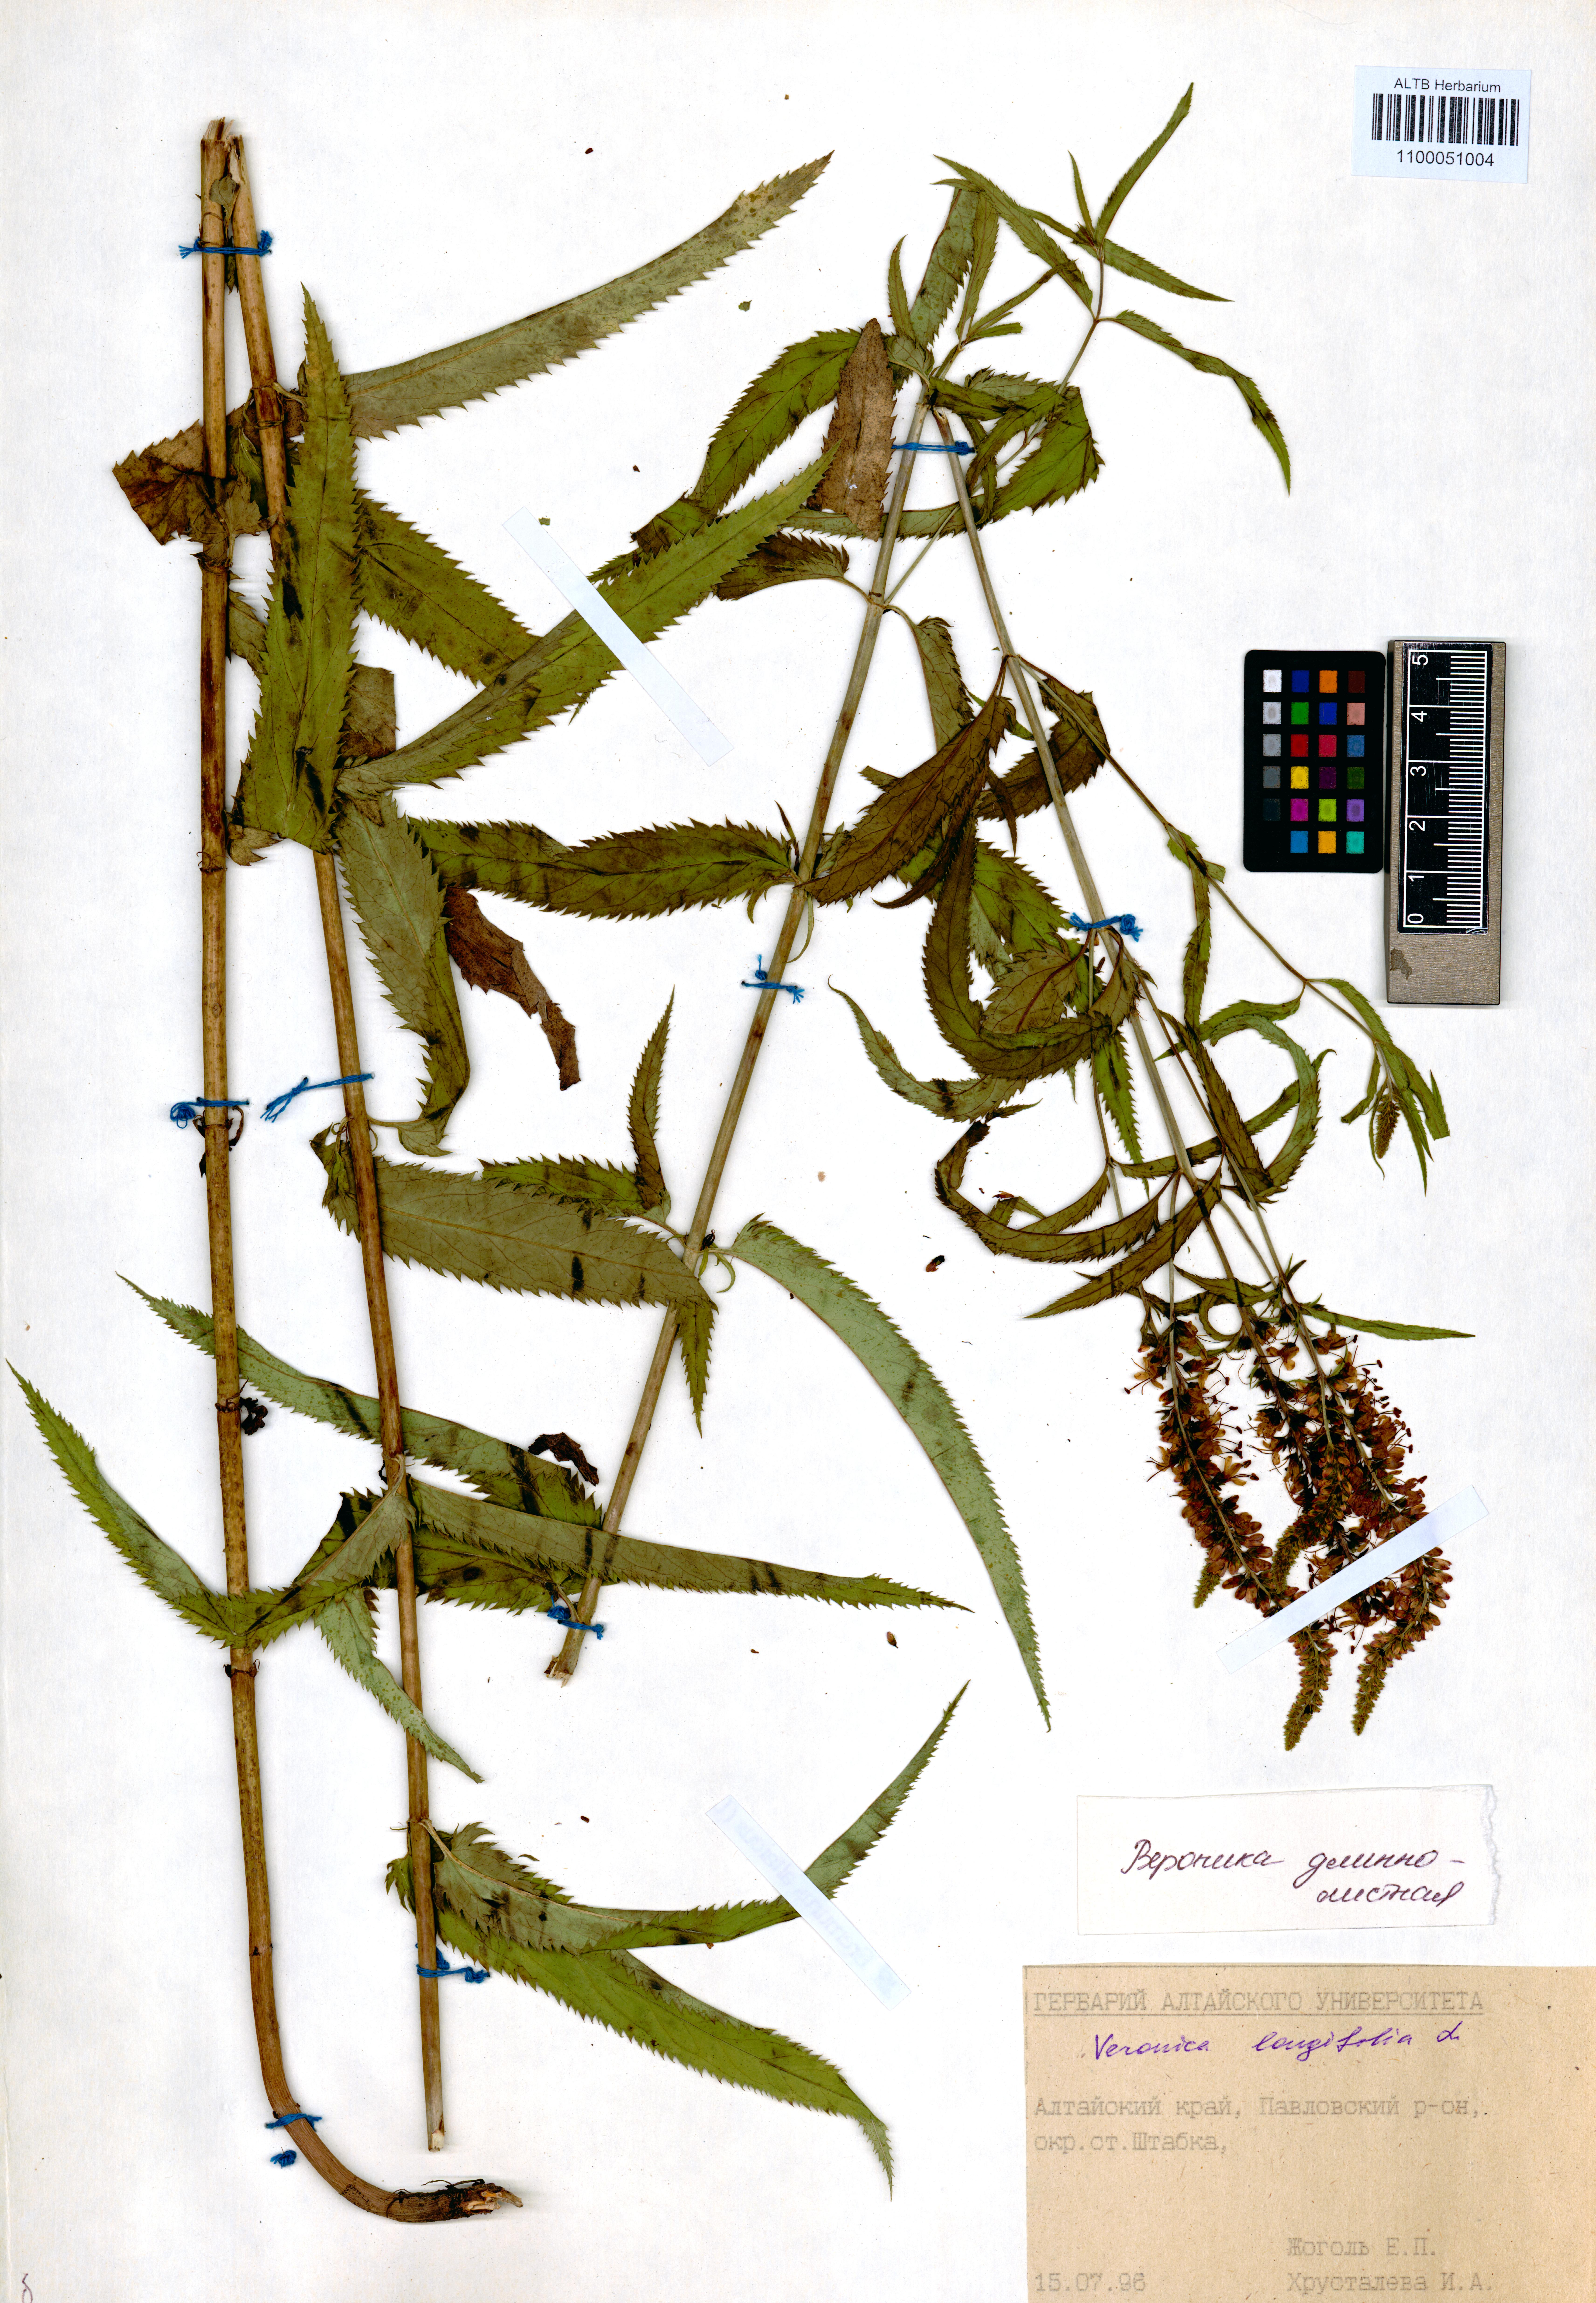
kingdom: Plantae
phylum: Tracheophyta
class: Magnoliopsida
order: Lamiales
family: Plantaginaceae
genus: Veronica
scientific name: Veronica longifolia
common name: Garden speedwell
